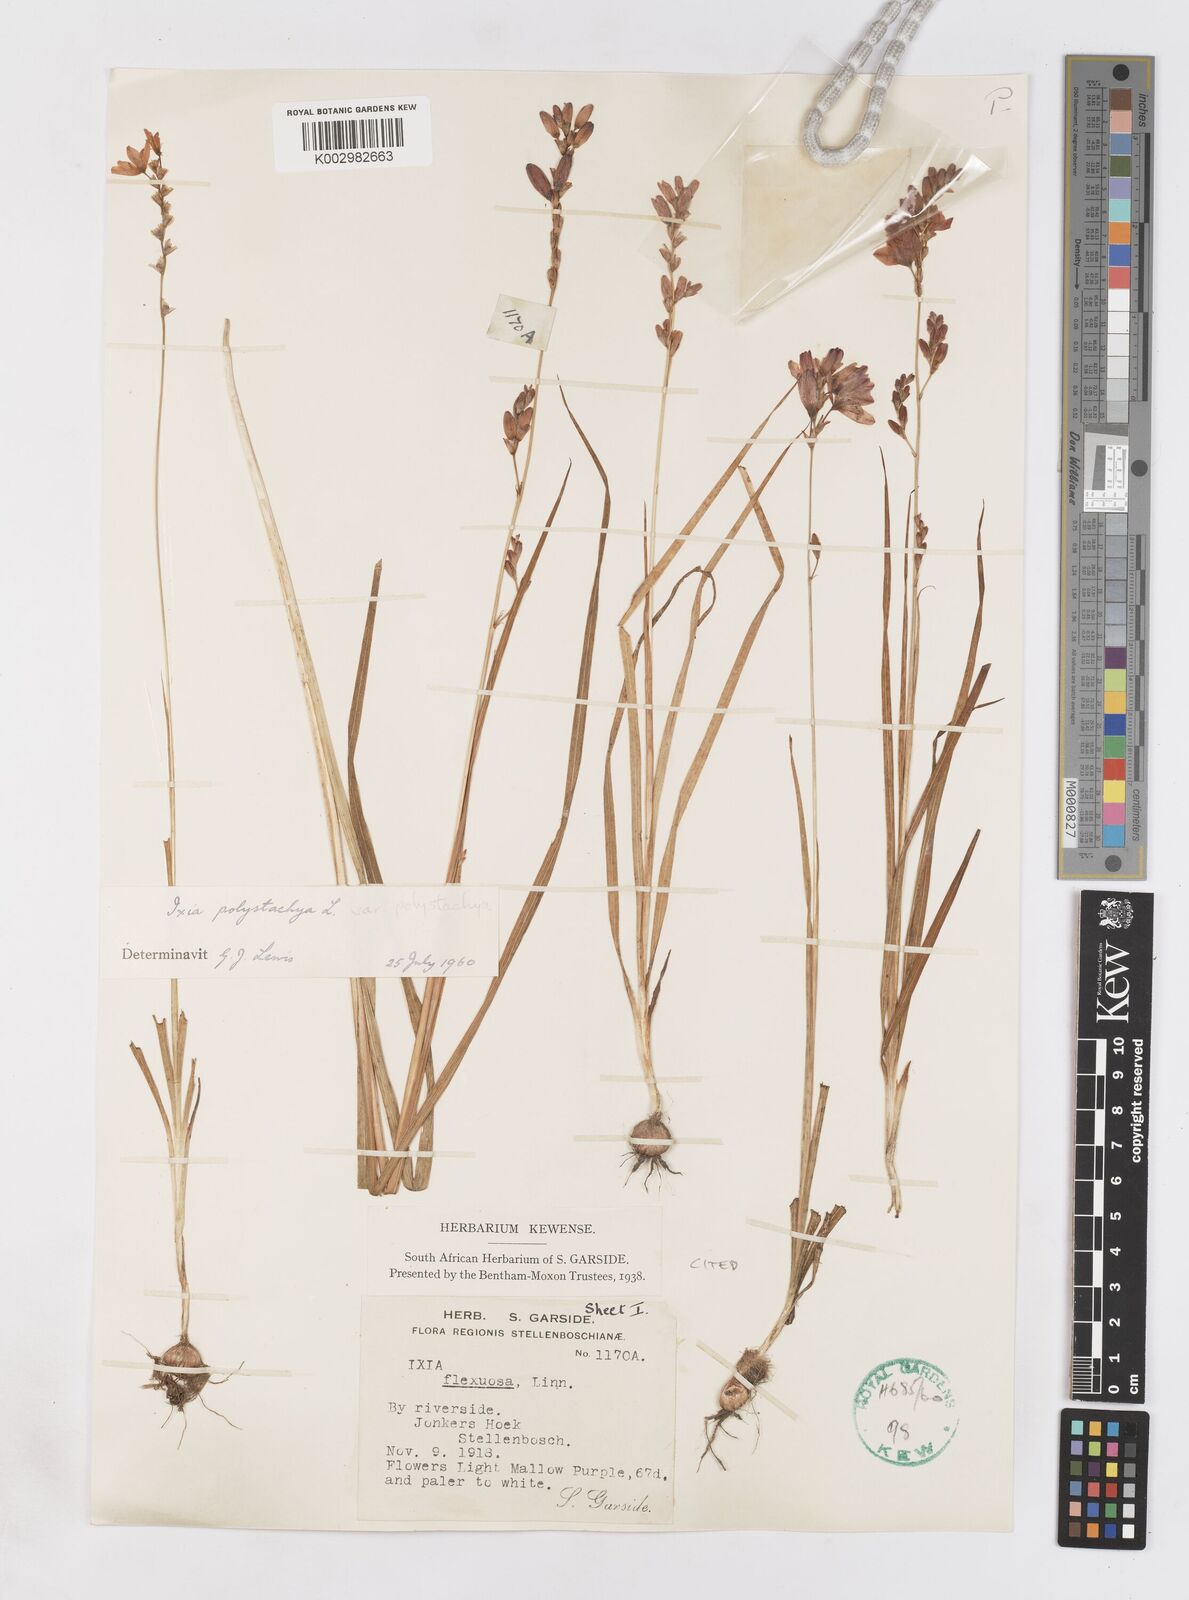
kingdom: Plantae
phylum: Tracheophyta
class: Liliopsida
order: Asparagales
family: Iridaceae
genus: Ixia
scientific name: Ixia polystachya
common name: White-and-yellow-flower cornlily
